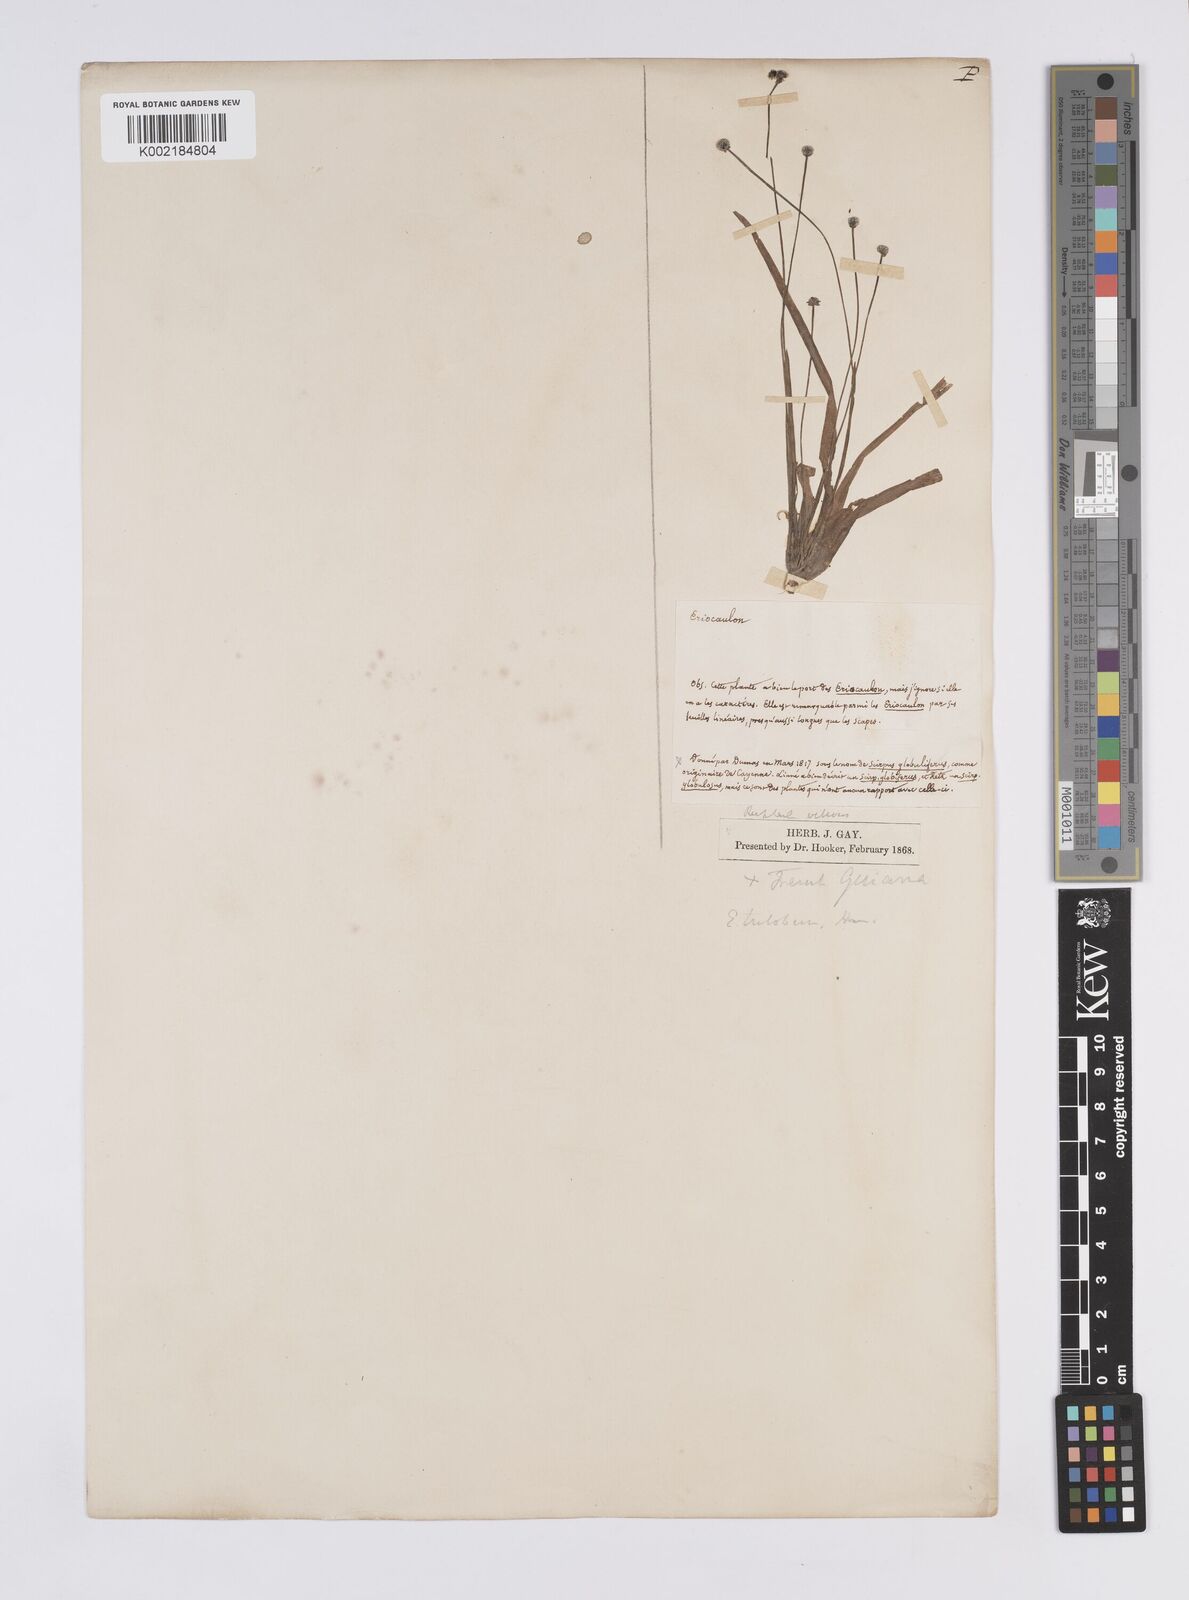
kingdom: Plantae
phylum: Tracheophyta
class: Liliopsida
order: Poales
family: Eriocaulaceae
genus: Eriocaulon
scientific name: Eriocaulon
